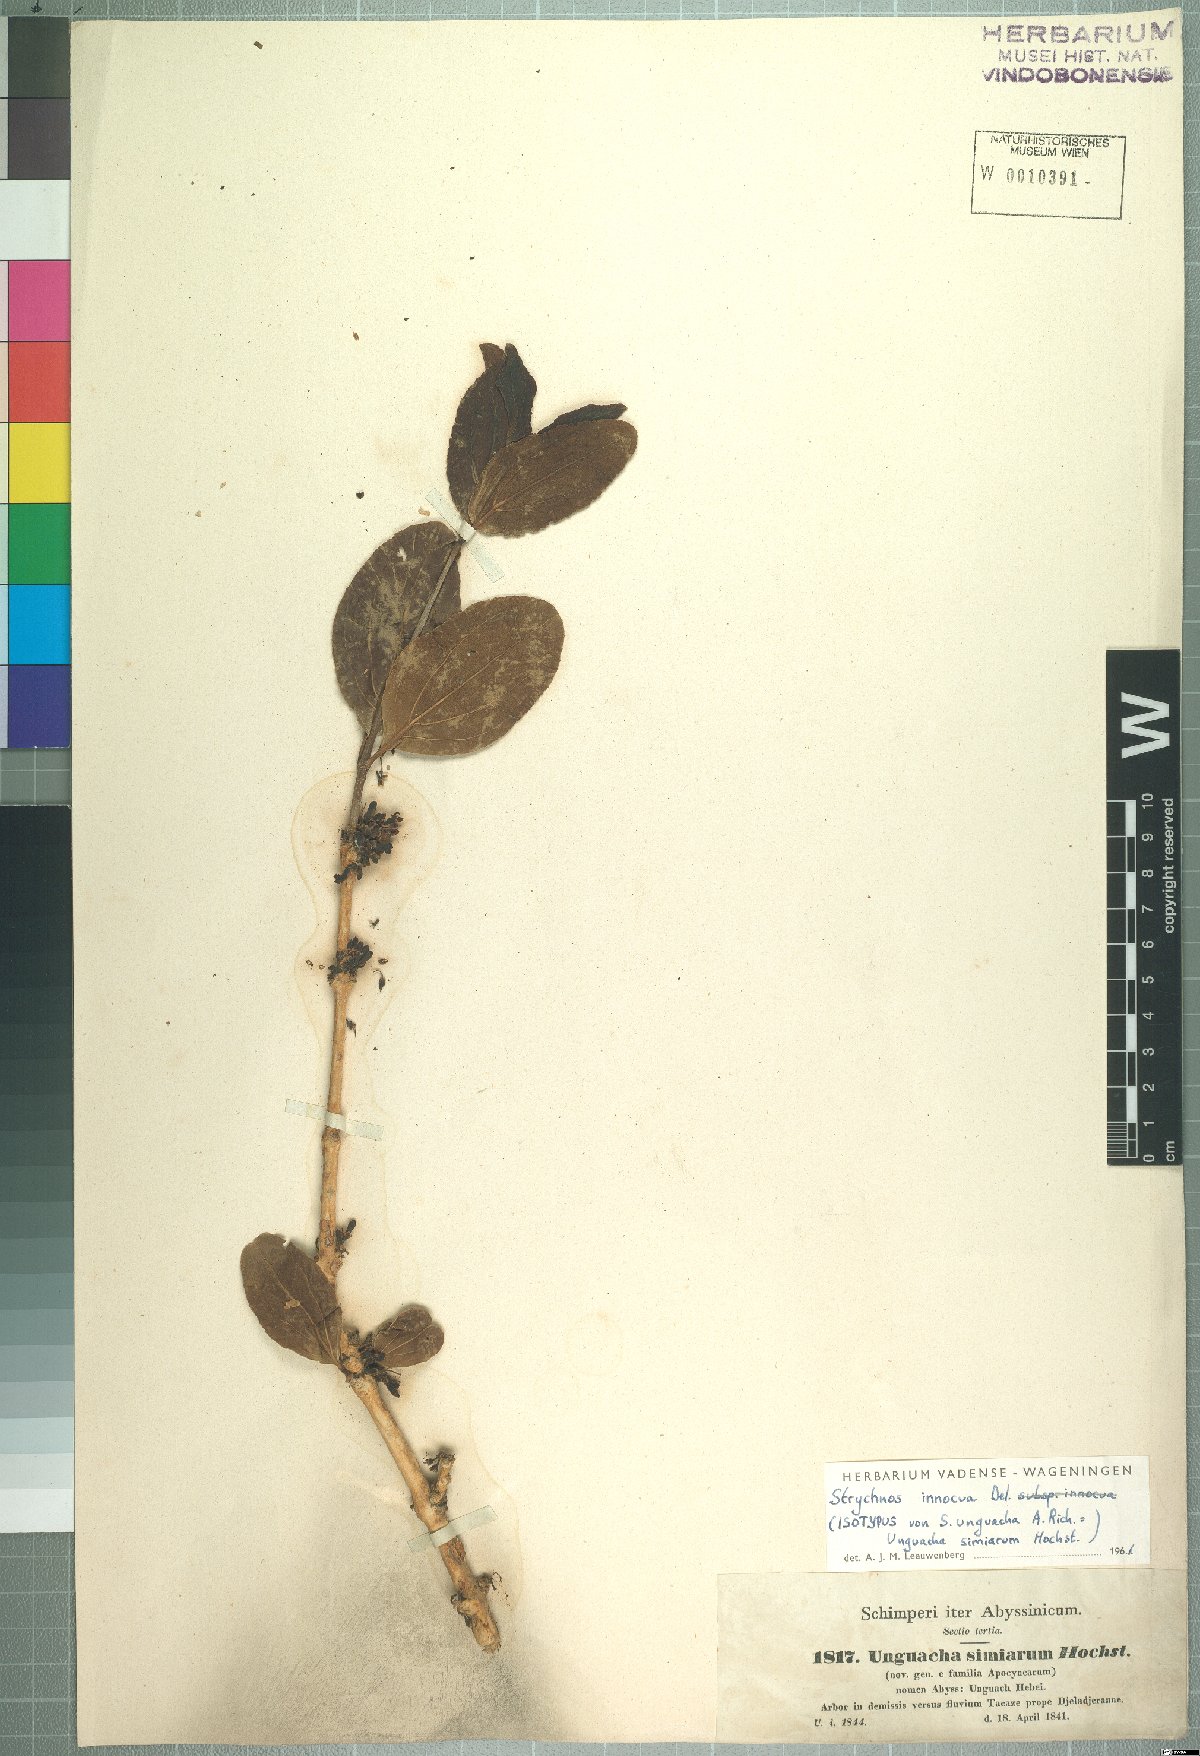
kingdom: Plantae
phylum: Tracheophyta
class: Magnoliopsida
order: Gentianales
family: Loganiaceae
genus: Strychnos
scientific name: Strychnos innocua
